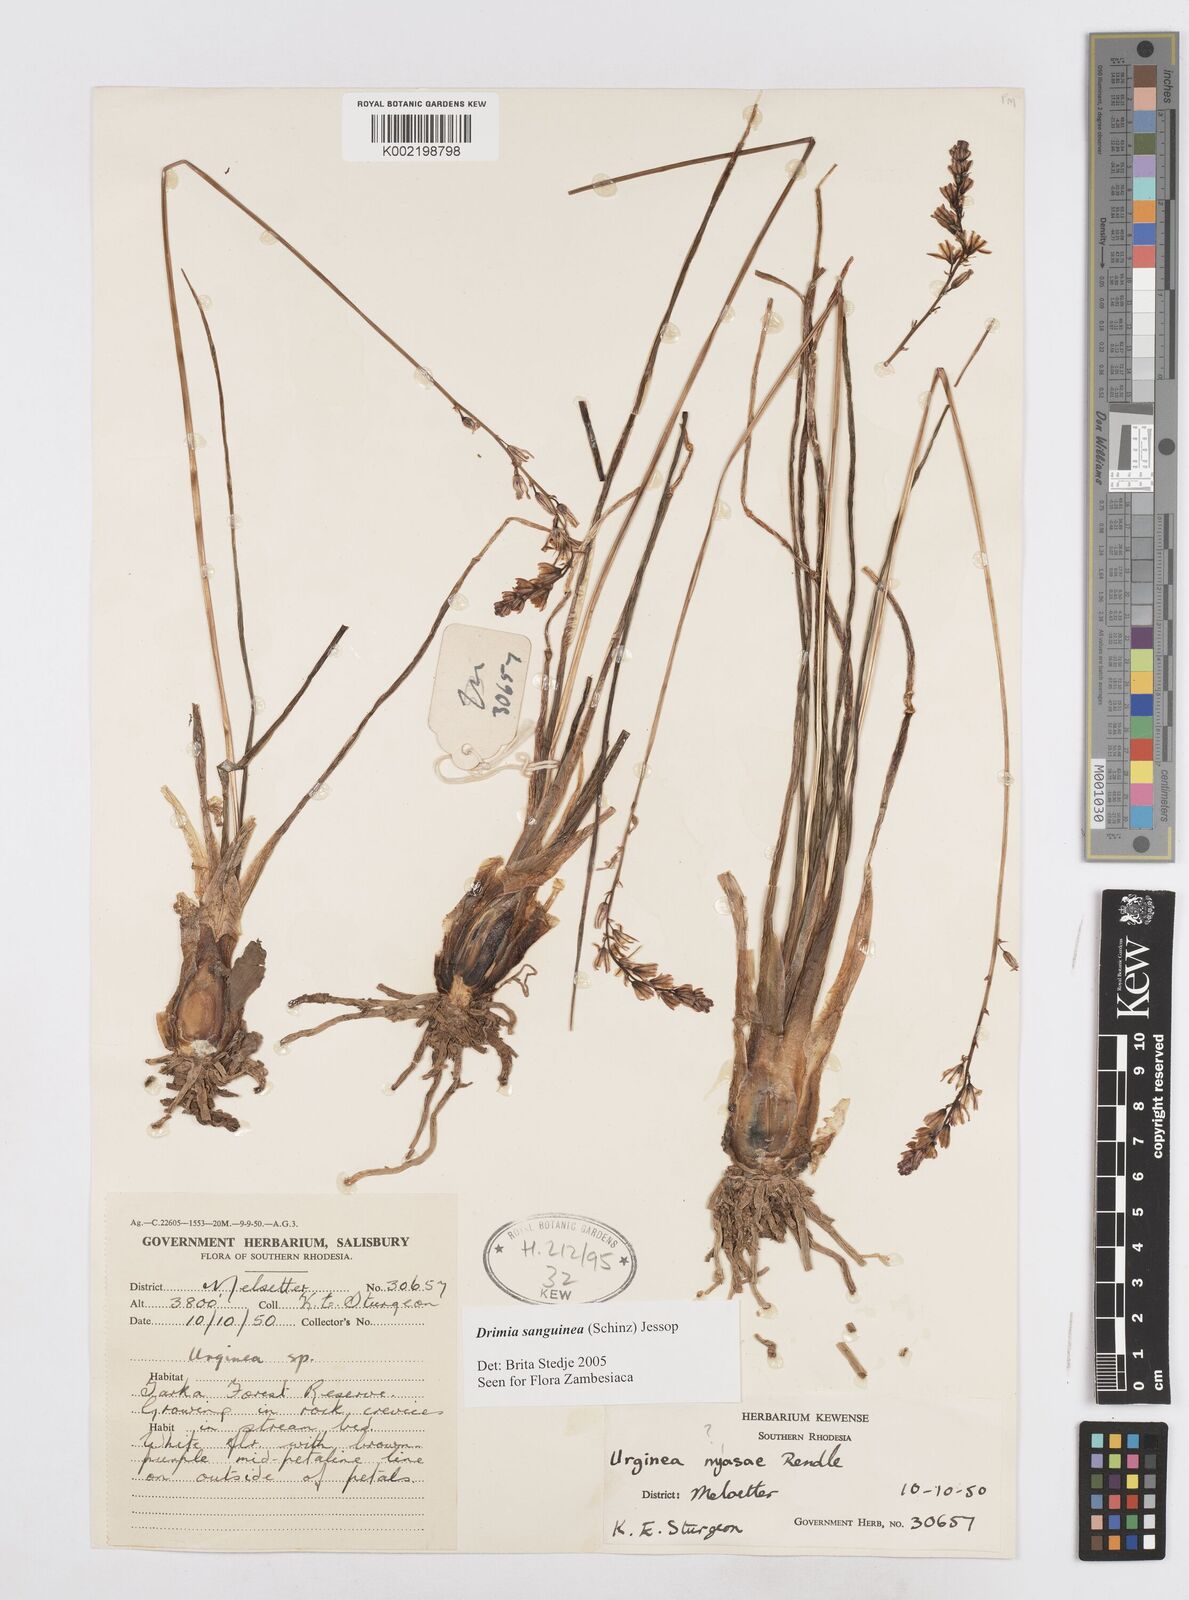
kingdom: Plantae
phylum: Tracheophyta
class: Liliopsida
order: Asparagales
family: Asparagaceae
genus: Drimia
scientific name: Drimia sanguinea
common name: Transvaal slangkop
